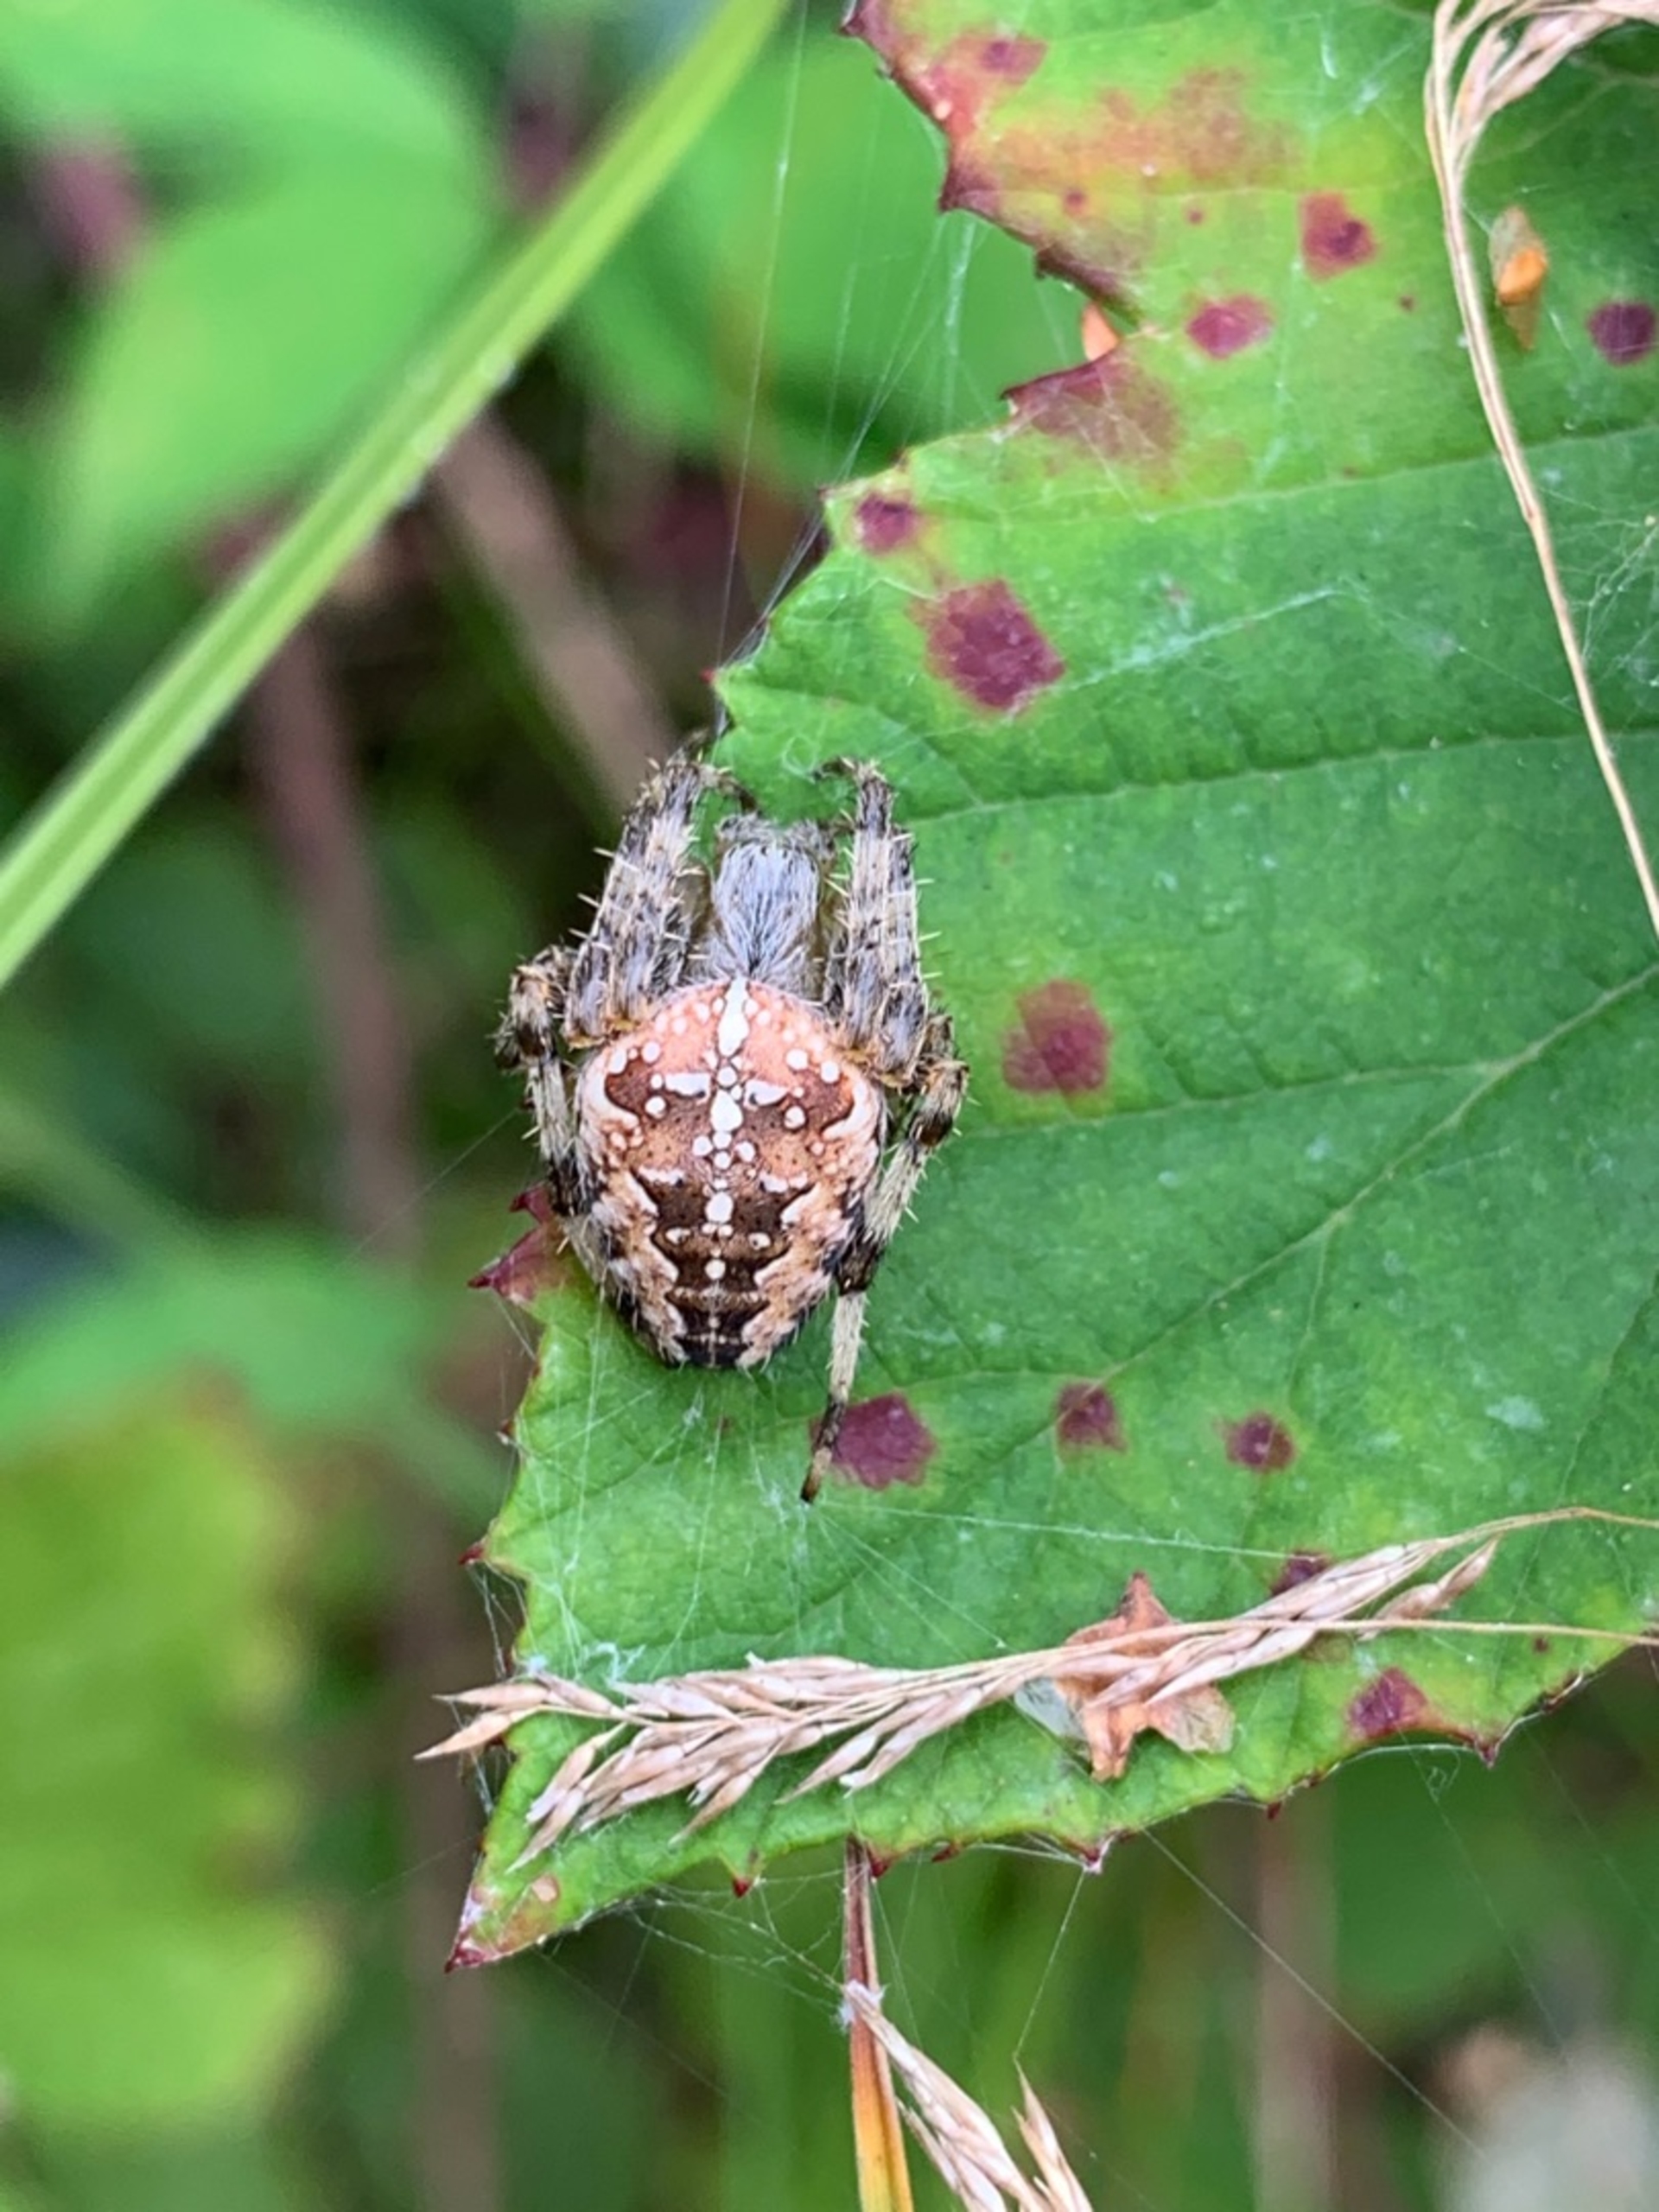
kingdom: Animalia
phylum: Arthropoda
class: Arachnida
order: Araneae
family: Araneidae
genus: Araneus
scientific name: Araneus diadematus
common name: Korsedderkop
